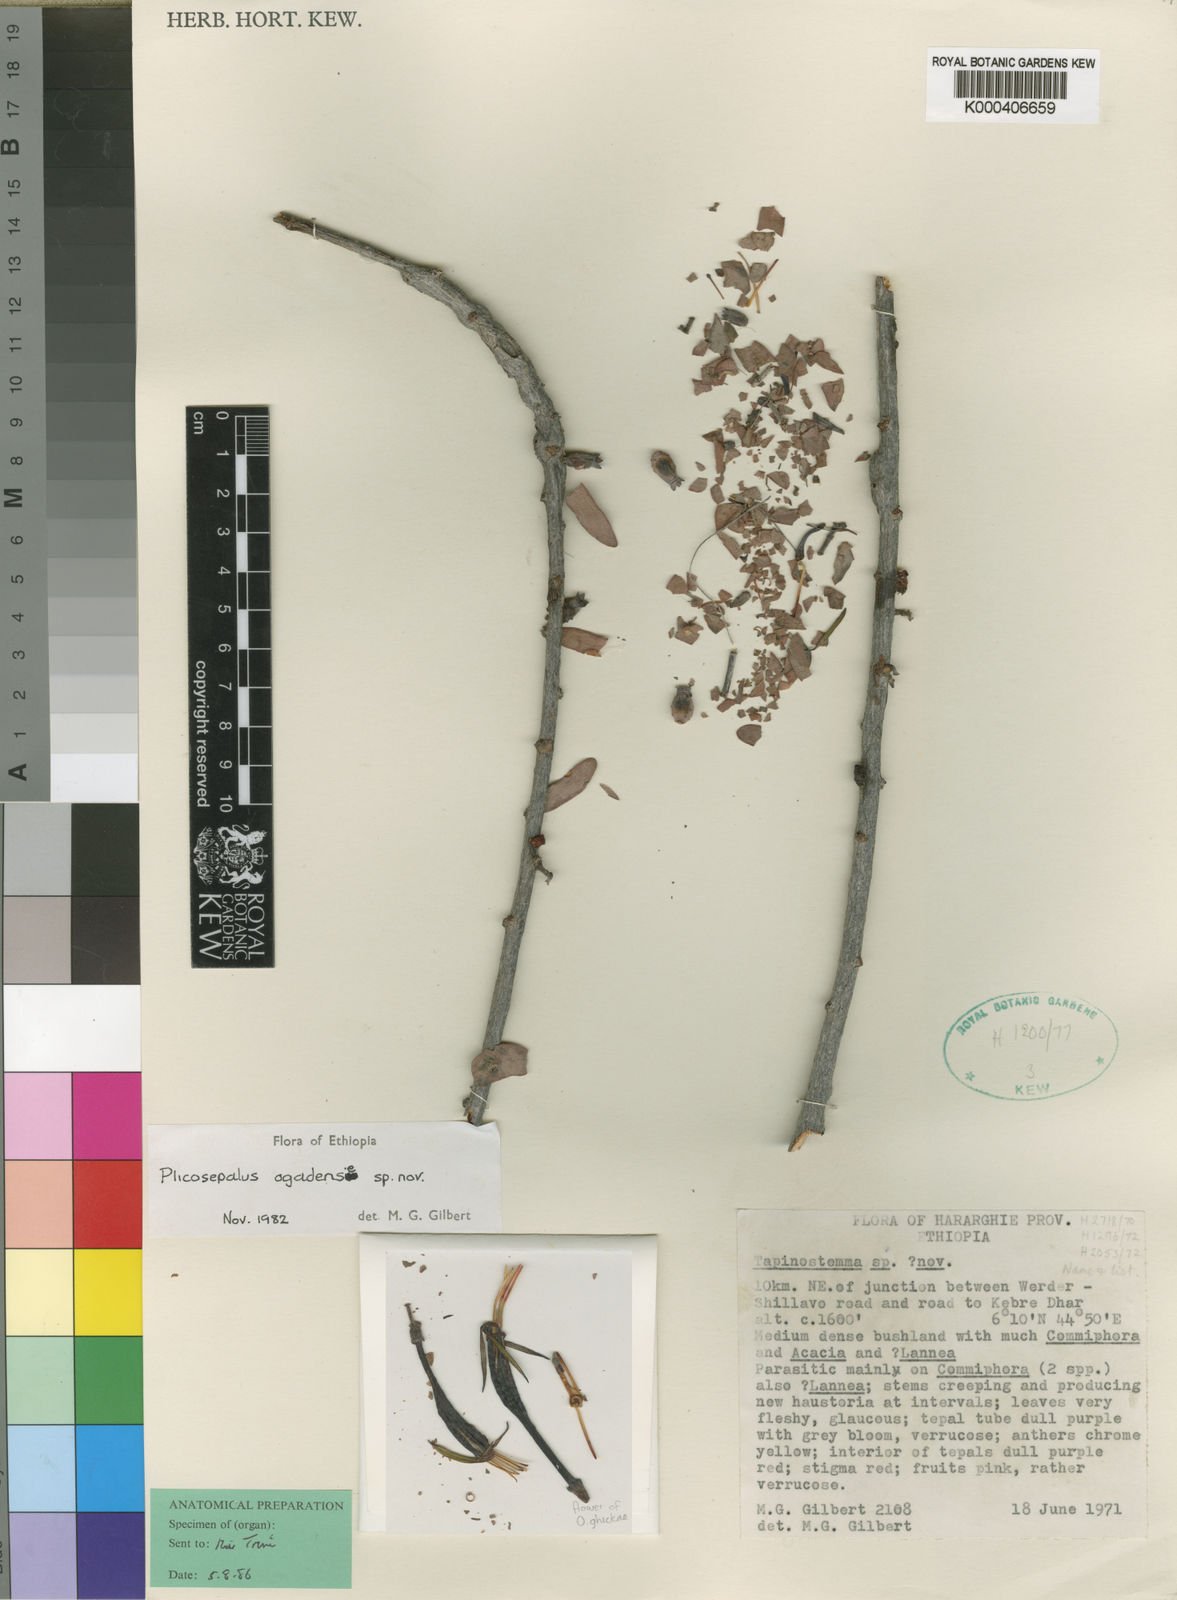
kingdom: Plantae
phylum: Tracheophyta
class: Magnoliopsida
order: Santalales
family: Loranthaceae
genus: Plicosepalus
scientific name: Plicosepalus ogadenensis
